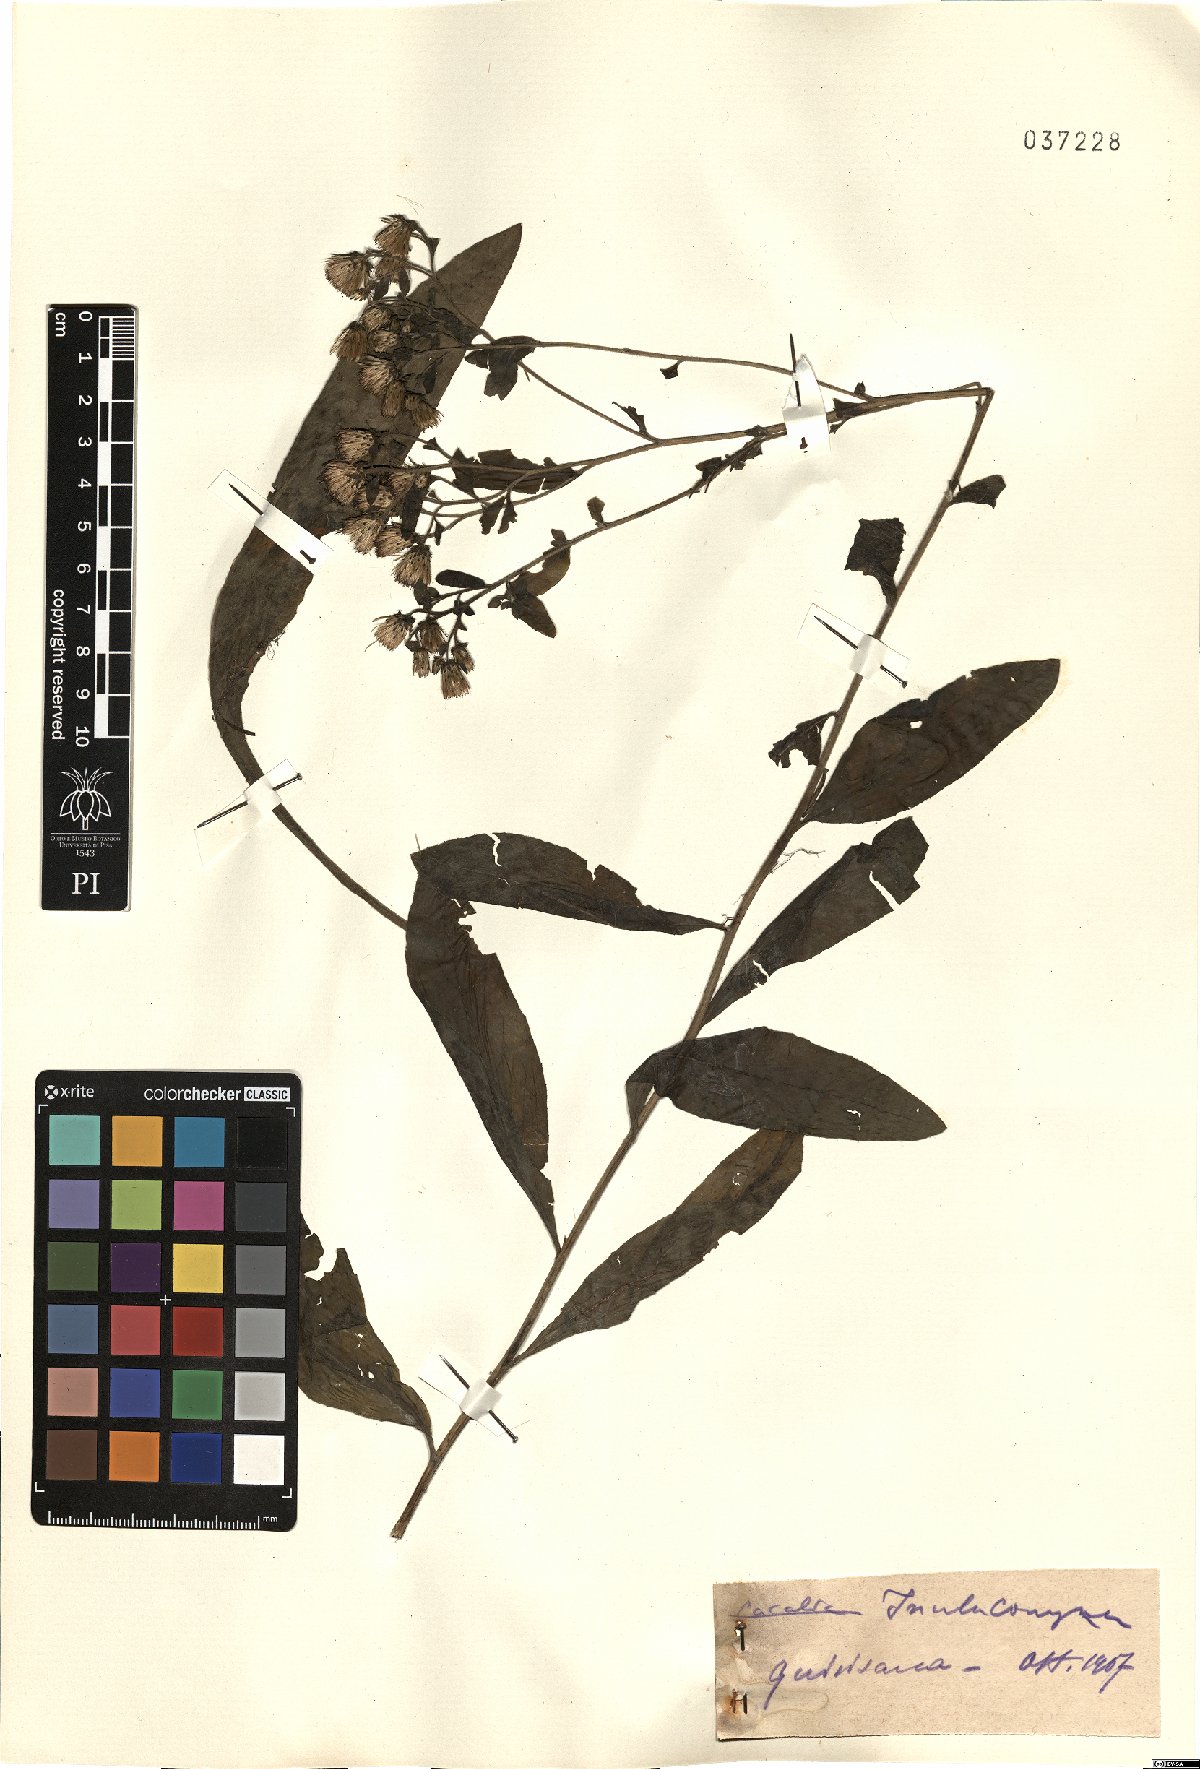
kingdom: Plantae
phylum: Tracheophyta
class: Magnoliopsida
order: Asterales
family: Asteraceae
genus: Pentanema
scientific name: Pentanema squarrosum
